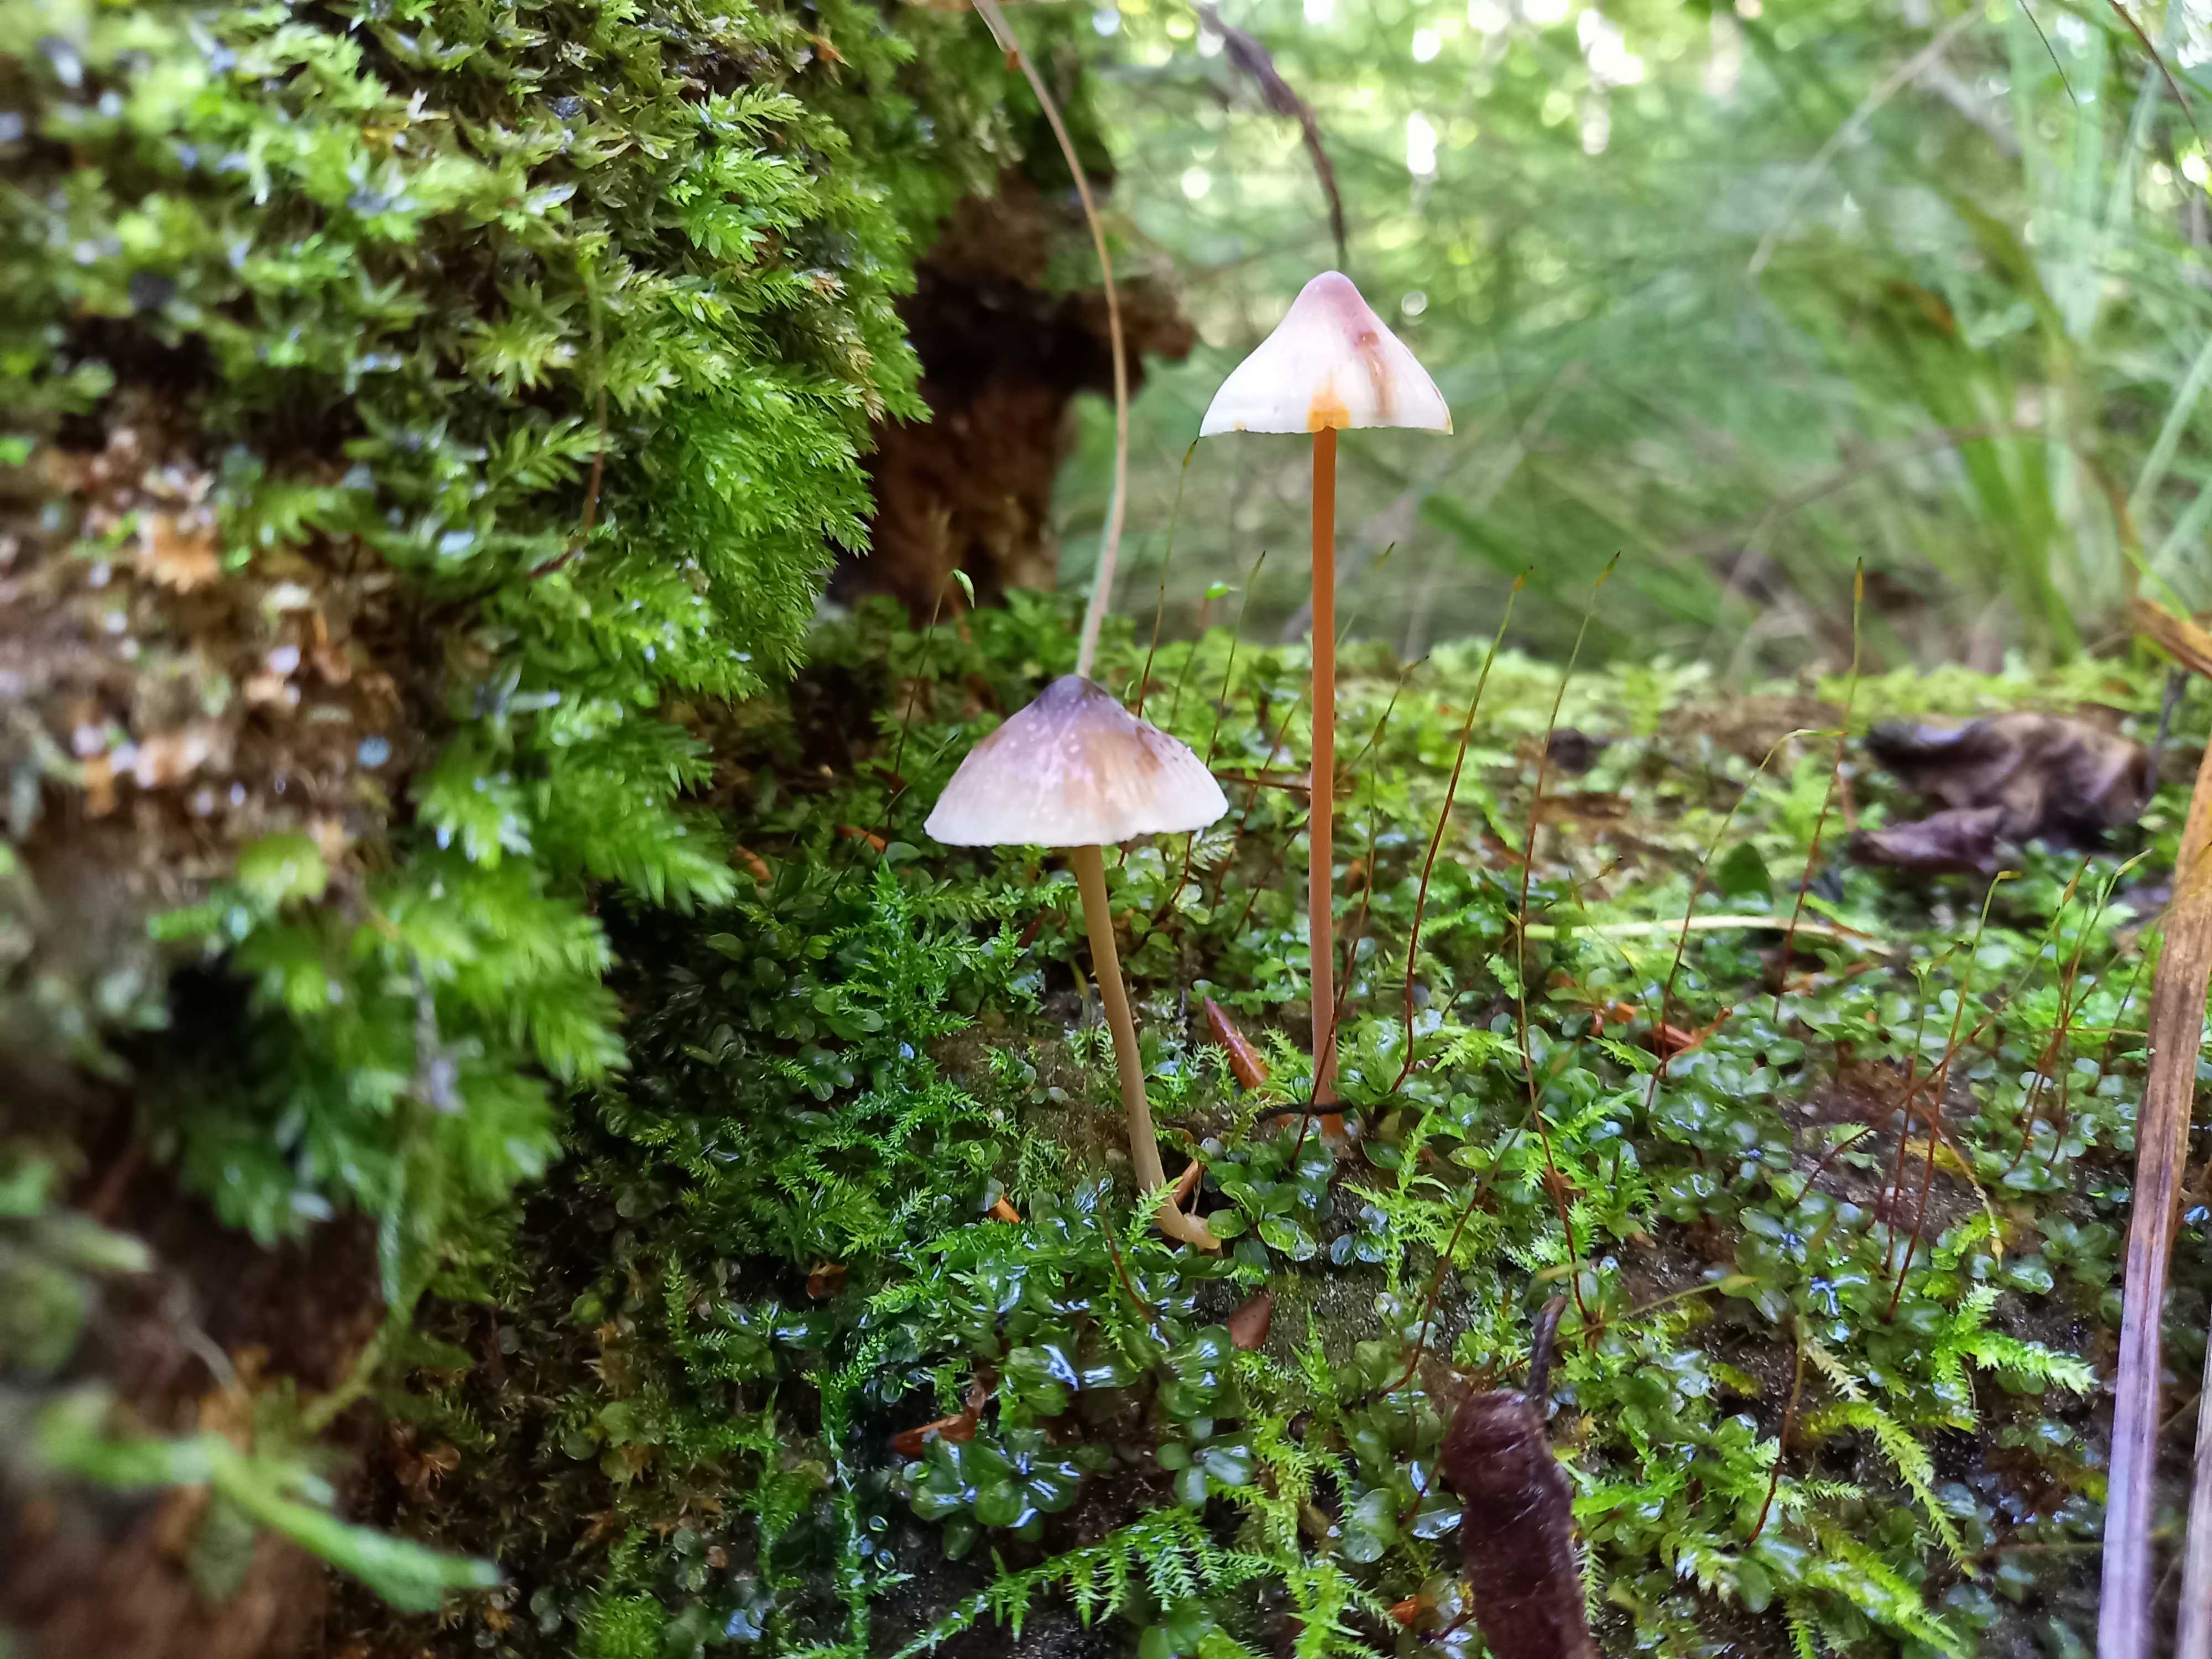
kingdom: Fungi
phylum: Basidiomycota
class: Agaricomycetes
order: Agaricales
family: Mycenaceae
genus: Mycena
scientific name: Mycena crocata
